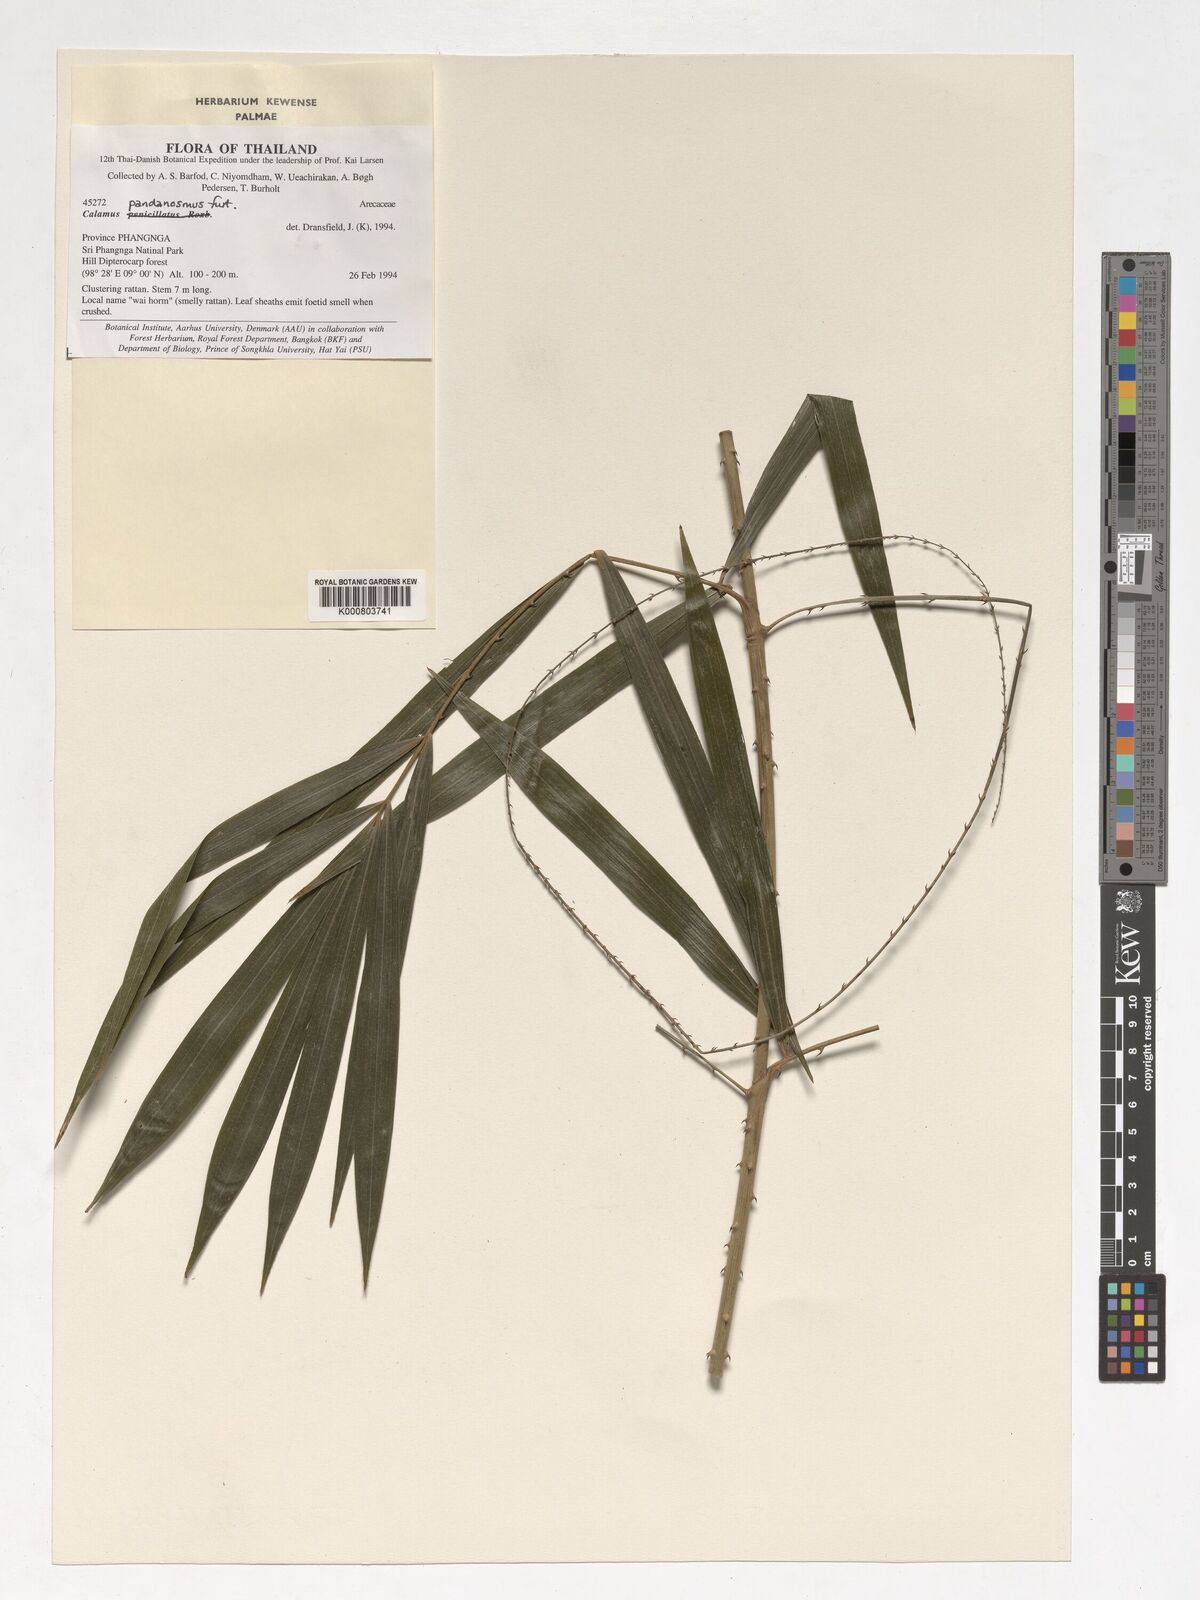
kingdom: Plantae
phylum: Tracheophyta
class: Liliopsida
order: Arecales
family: Arecaceae
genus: Calamus
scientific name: Calamus pandanosmus
